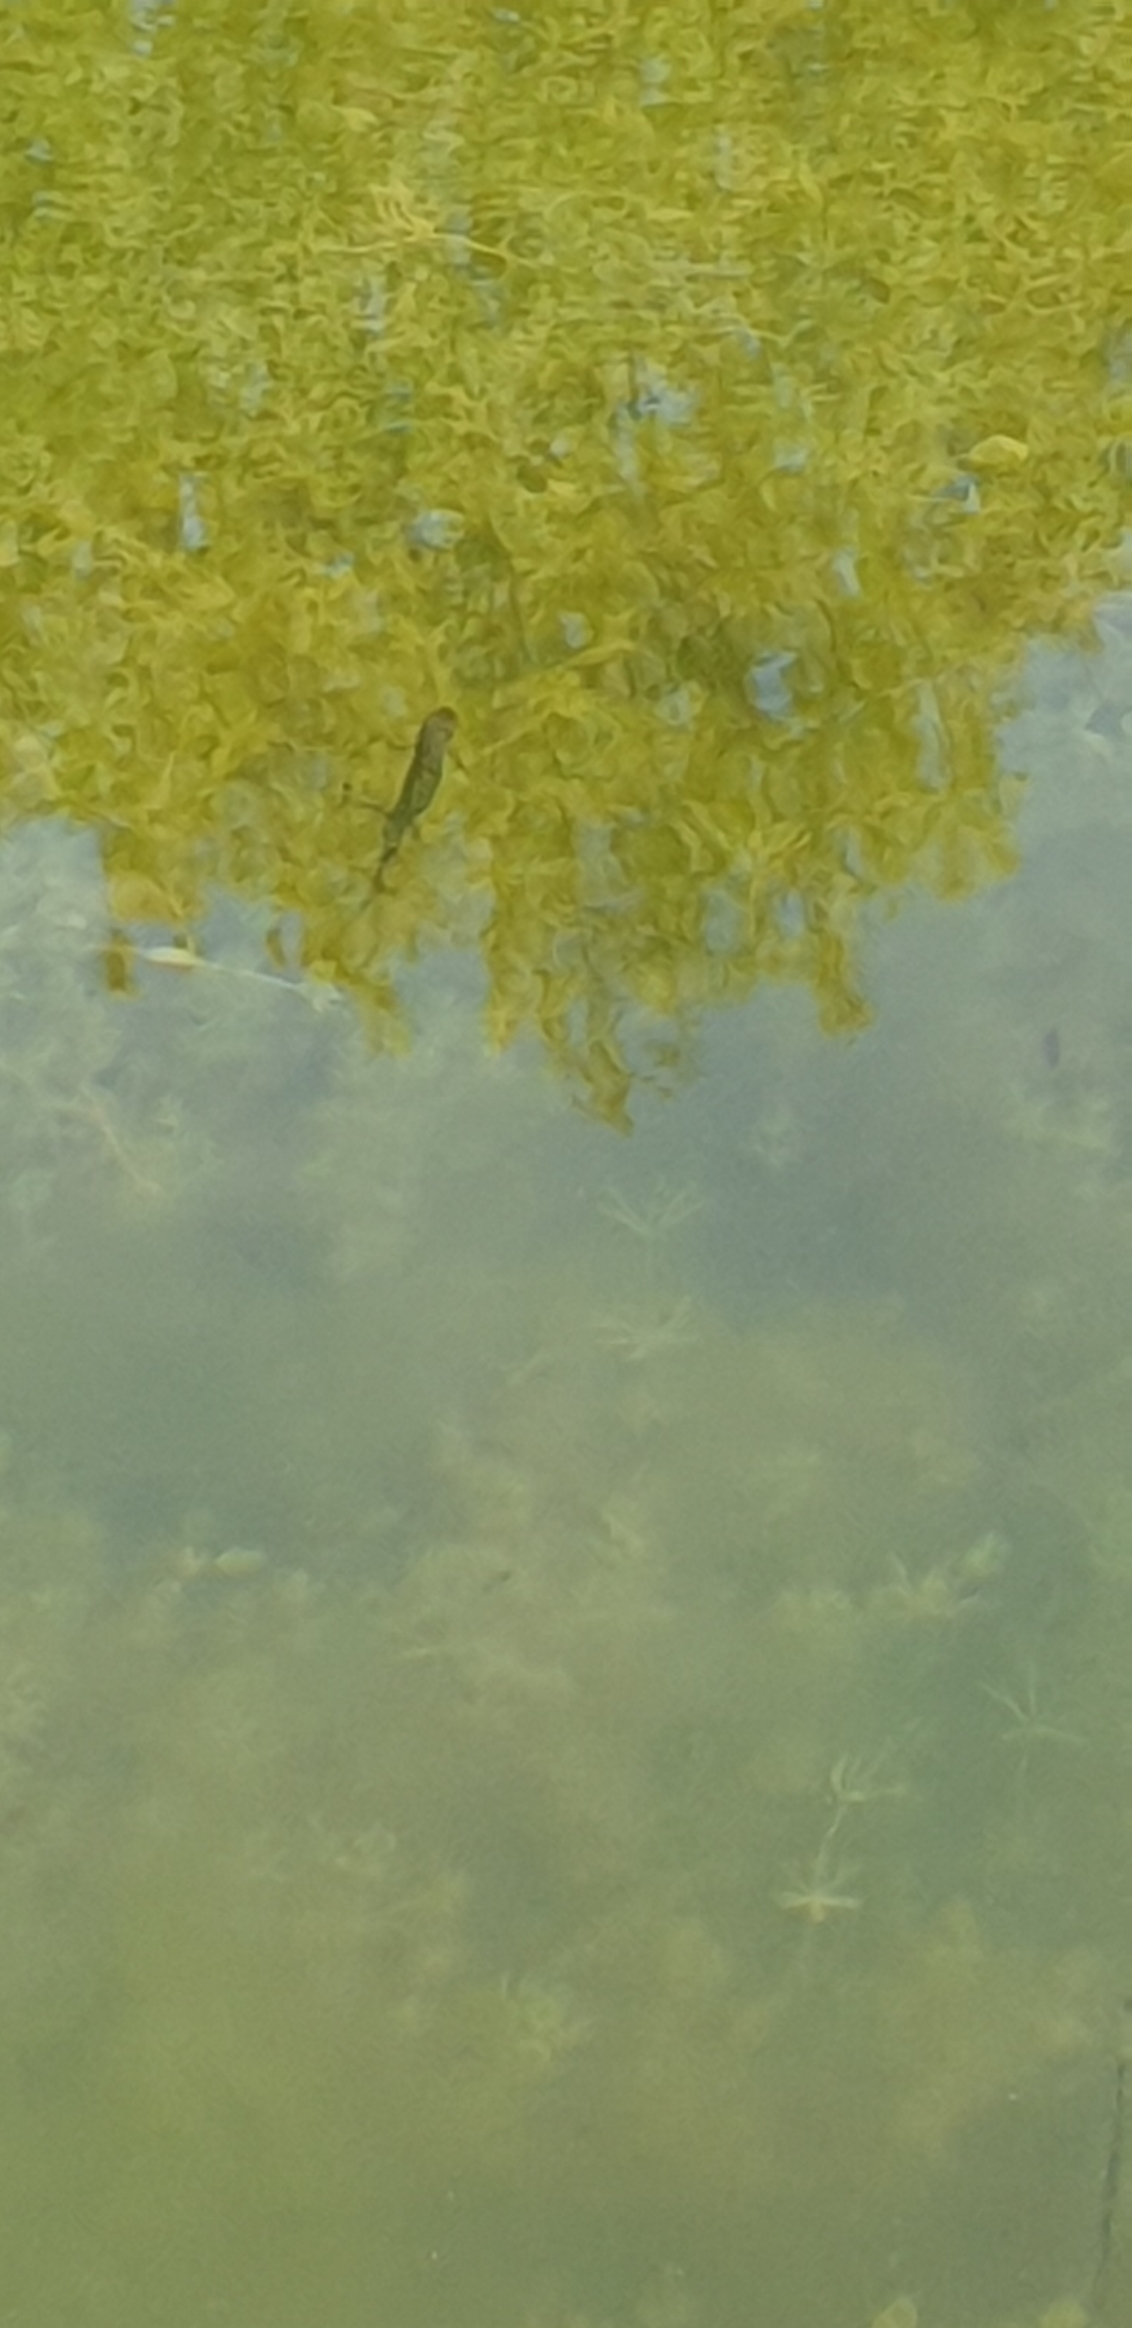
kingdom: Animalia
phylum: Chordata
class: Amphibia
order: Caudata
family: Salamandridae
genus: Lissotriton
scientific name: Lissotriton vulgaris
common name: Lille vandsalamander
